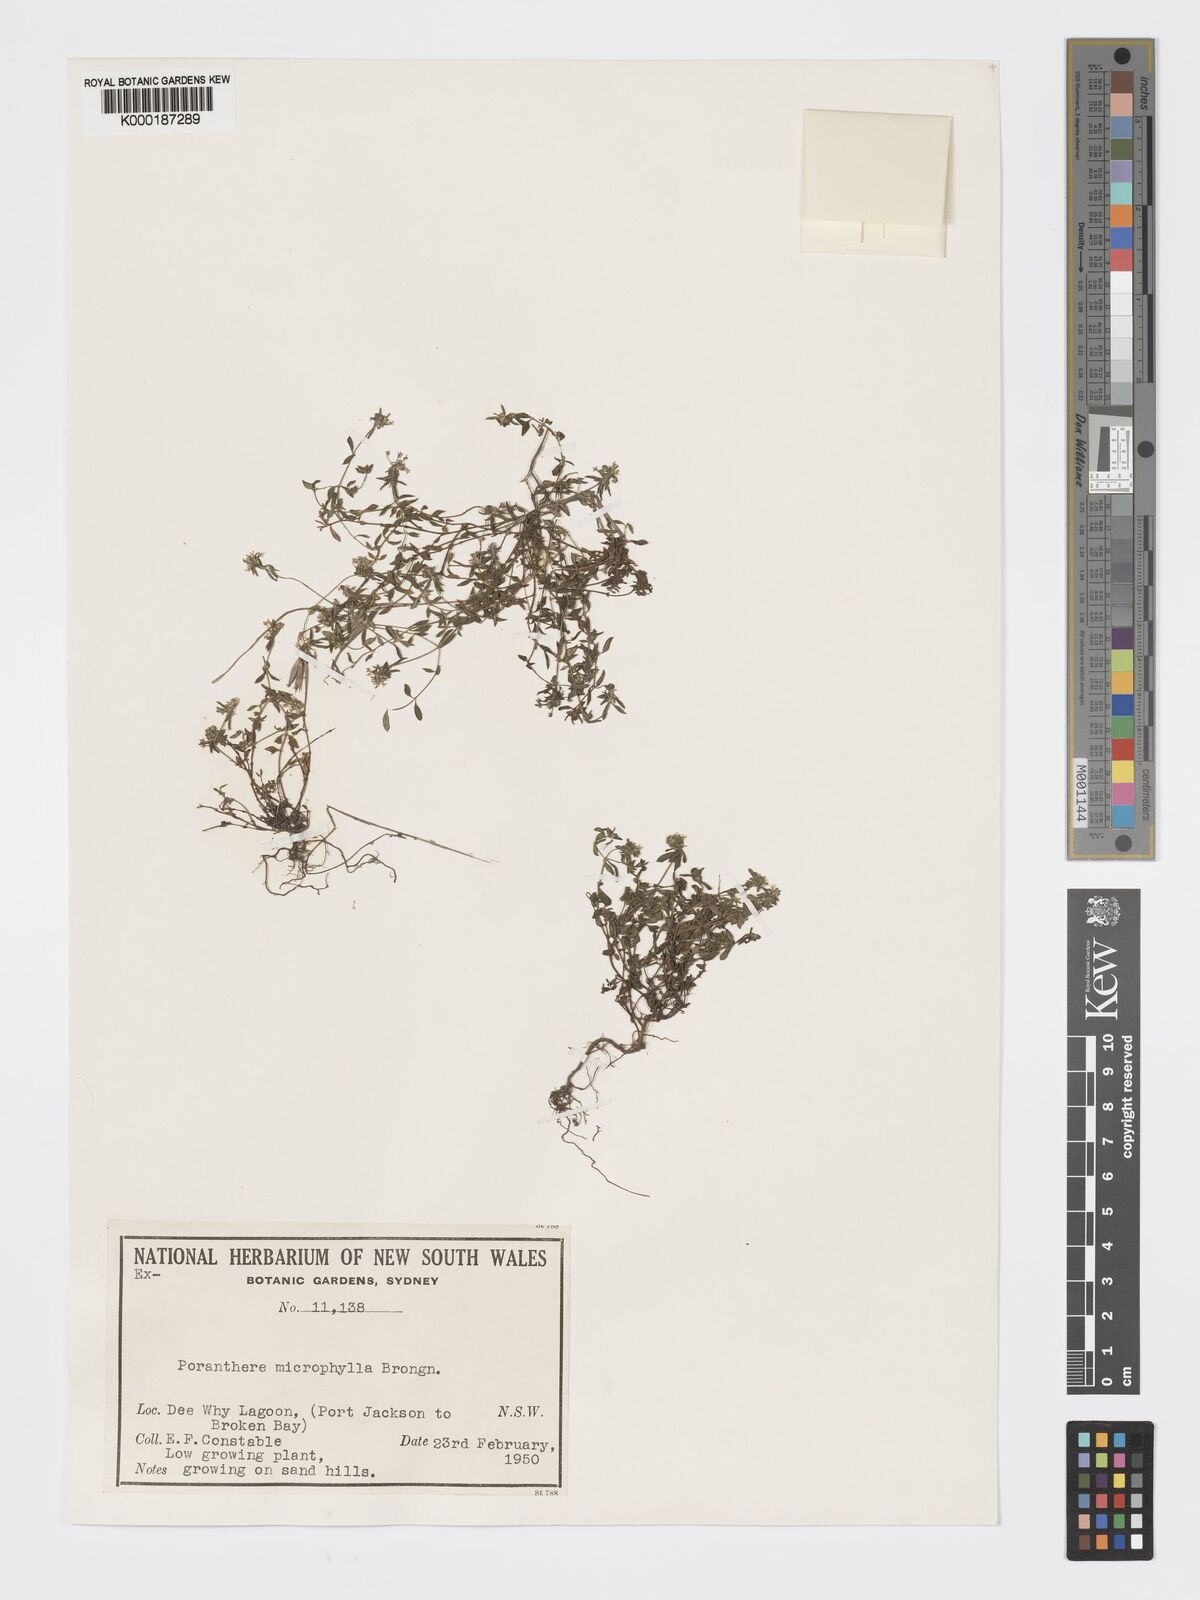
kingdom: Plantae
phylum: Tracheophyta
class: Magnoliopsida
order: Malpighiales
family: Phyllanthaceae
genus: Poranthera
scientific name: Poranthera microphylla
